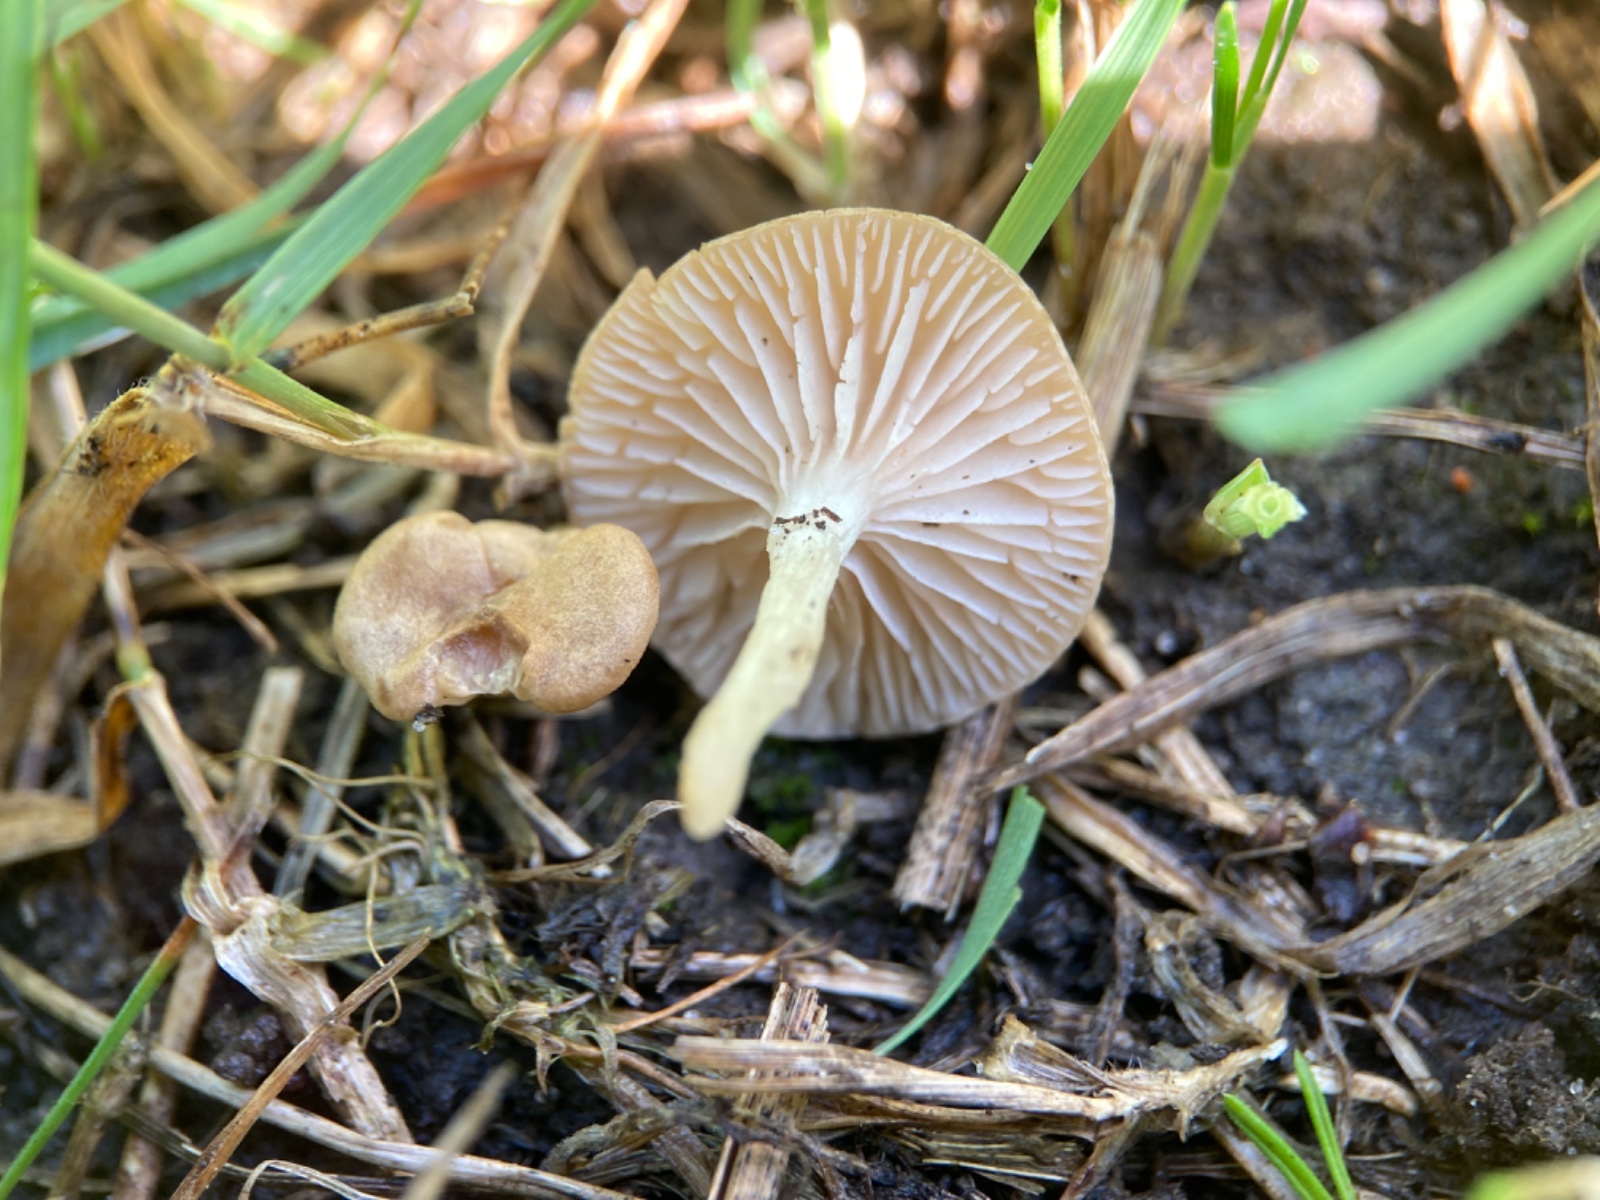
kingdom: Fungi
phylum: Basidiomycota
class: Agaricomycetes
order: Agaricales
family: Entolomataceae
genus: Entoloma
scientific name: Entoloma neglectum
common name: bleg rødblad
